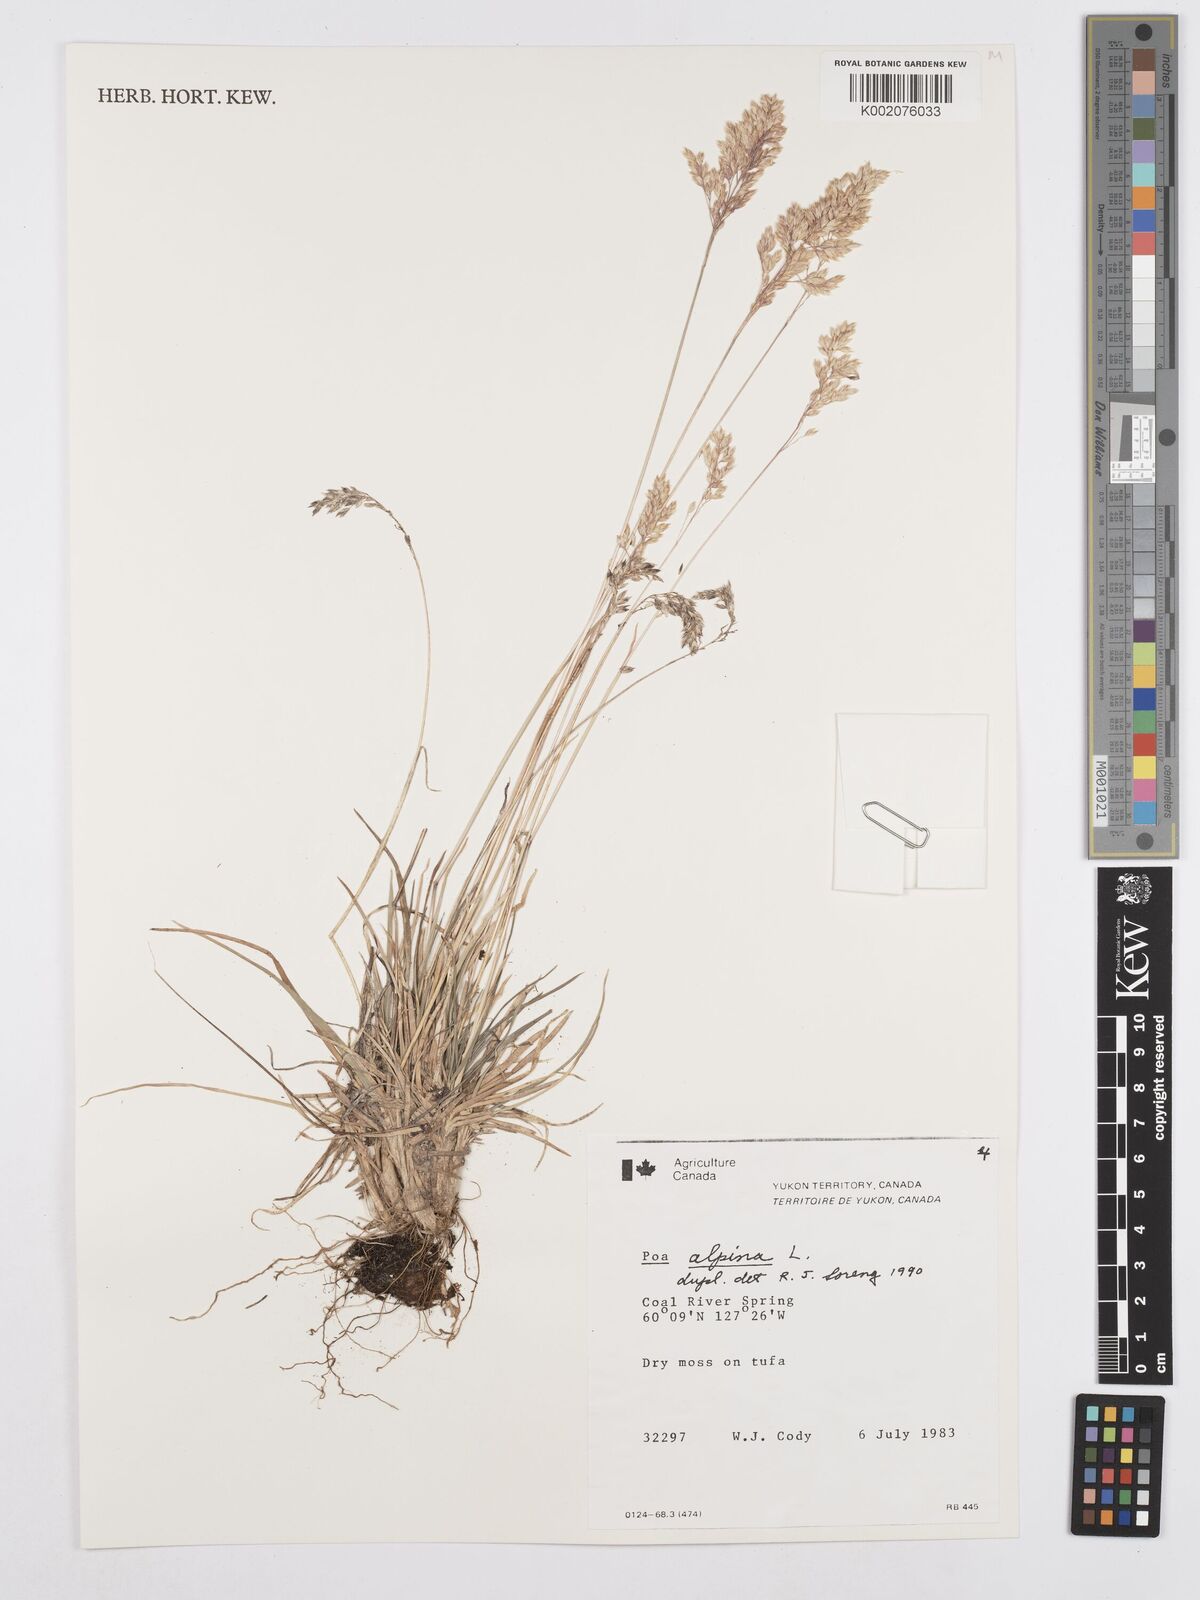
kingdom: Plantae
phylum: Tracheophyta
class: Liliopsida
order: Poales
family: Poaceae
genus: Poa
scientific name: Poa alpina
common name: Alpine bluegrass
